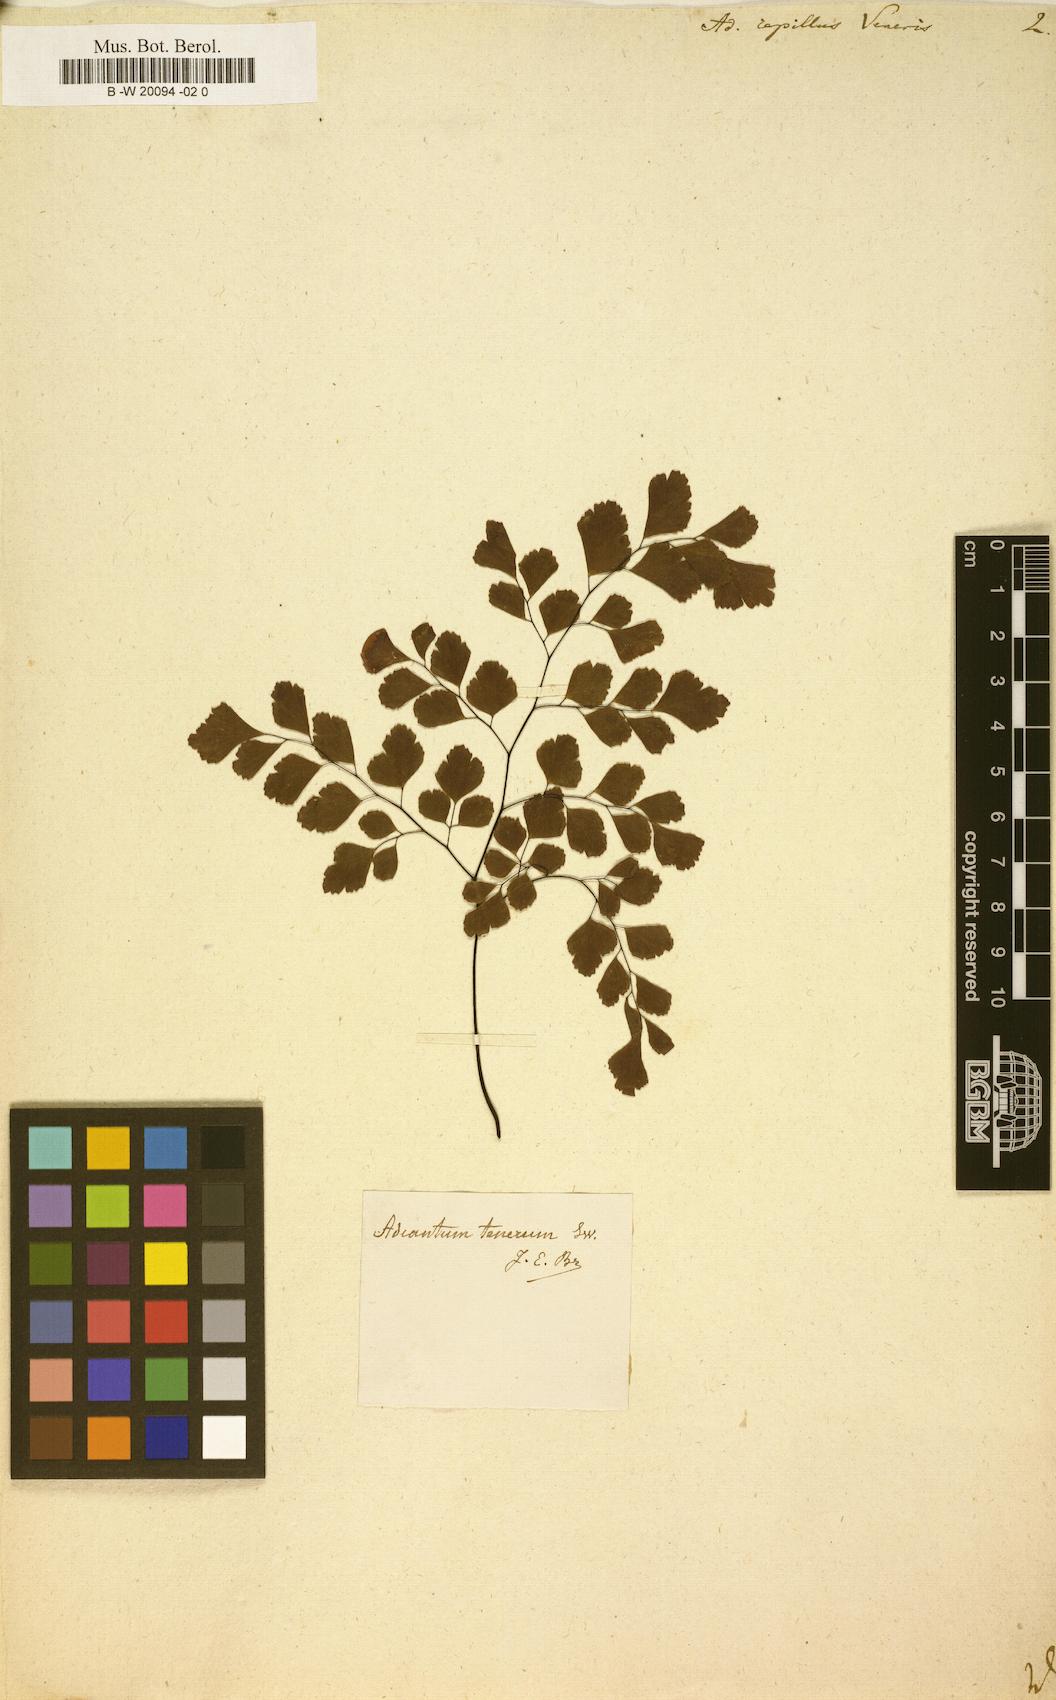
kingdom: Plantae
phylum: Tracheophyta
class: Polypodiopsida
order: Polypodiales
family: Pteridaceae
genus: Adiantum
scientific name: Adiantum capillus-veneris
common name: Maidenhair fern
